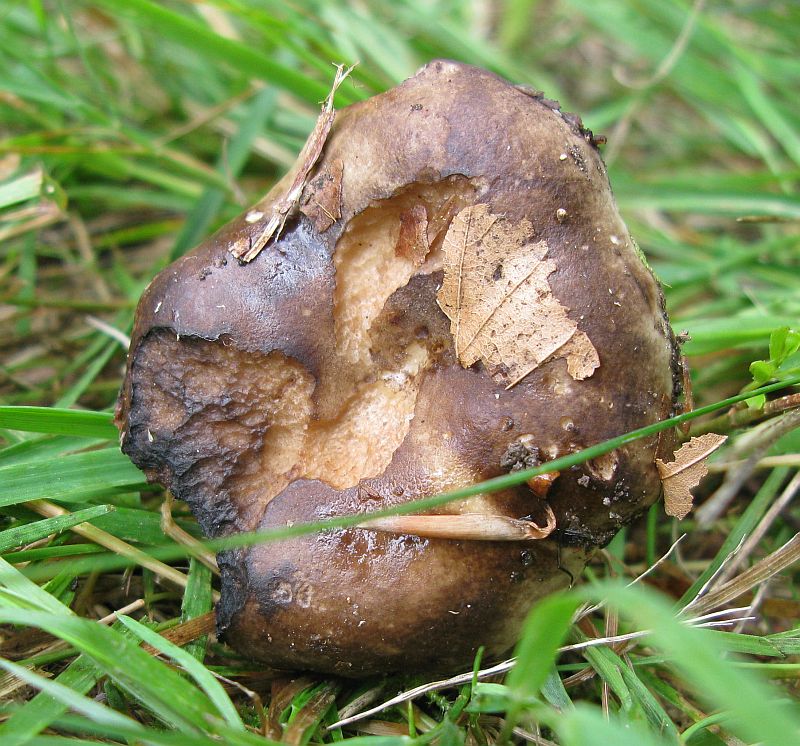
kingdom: Fungi
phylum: Basidiomycota
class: Agaricomycetes
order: Russulales
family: Russulaceae
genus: Russula
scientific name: Russula acrifolia
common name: skarpbladet skørhat
